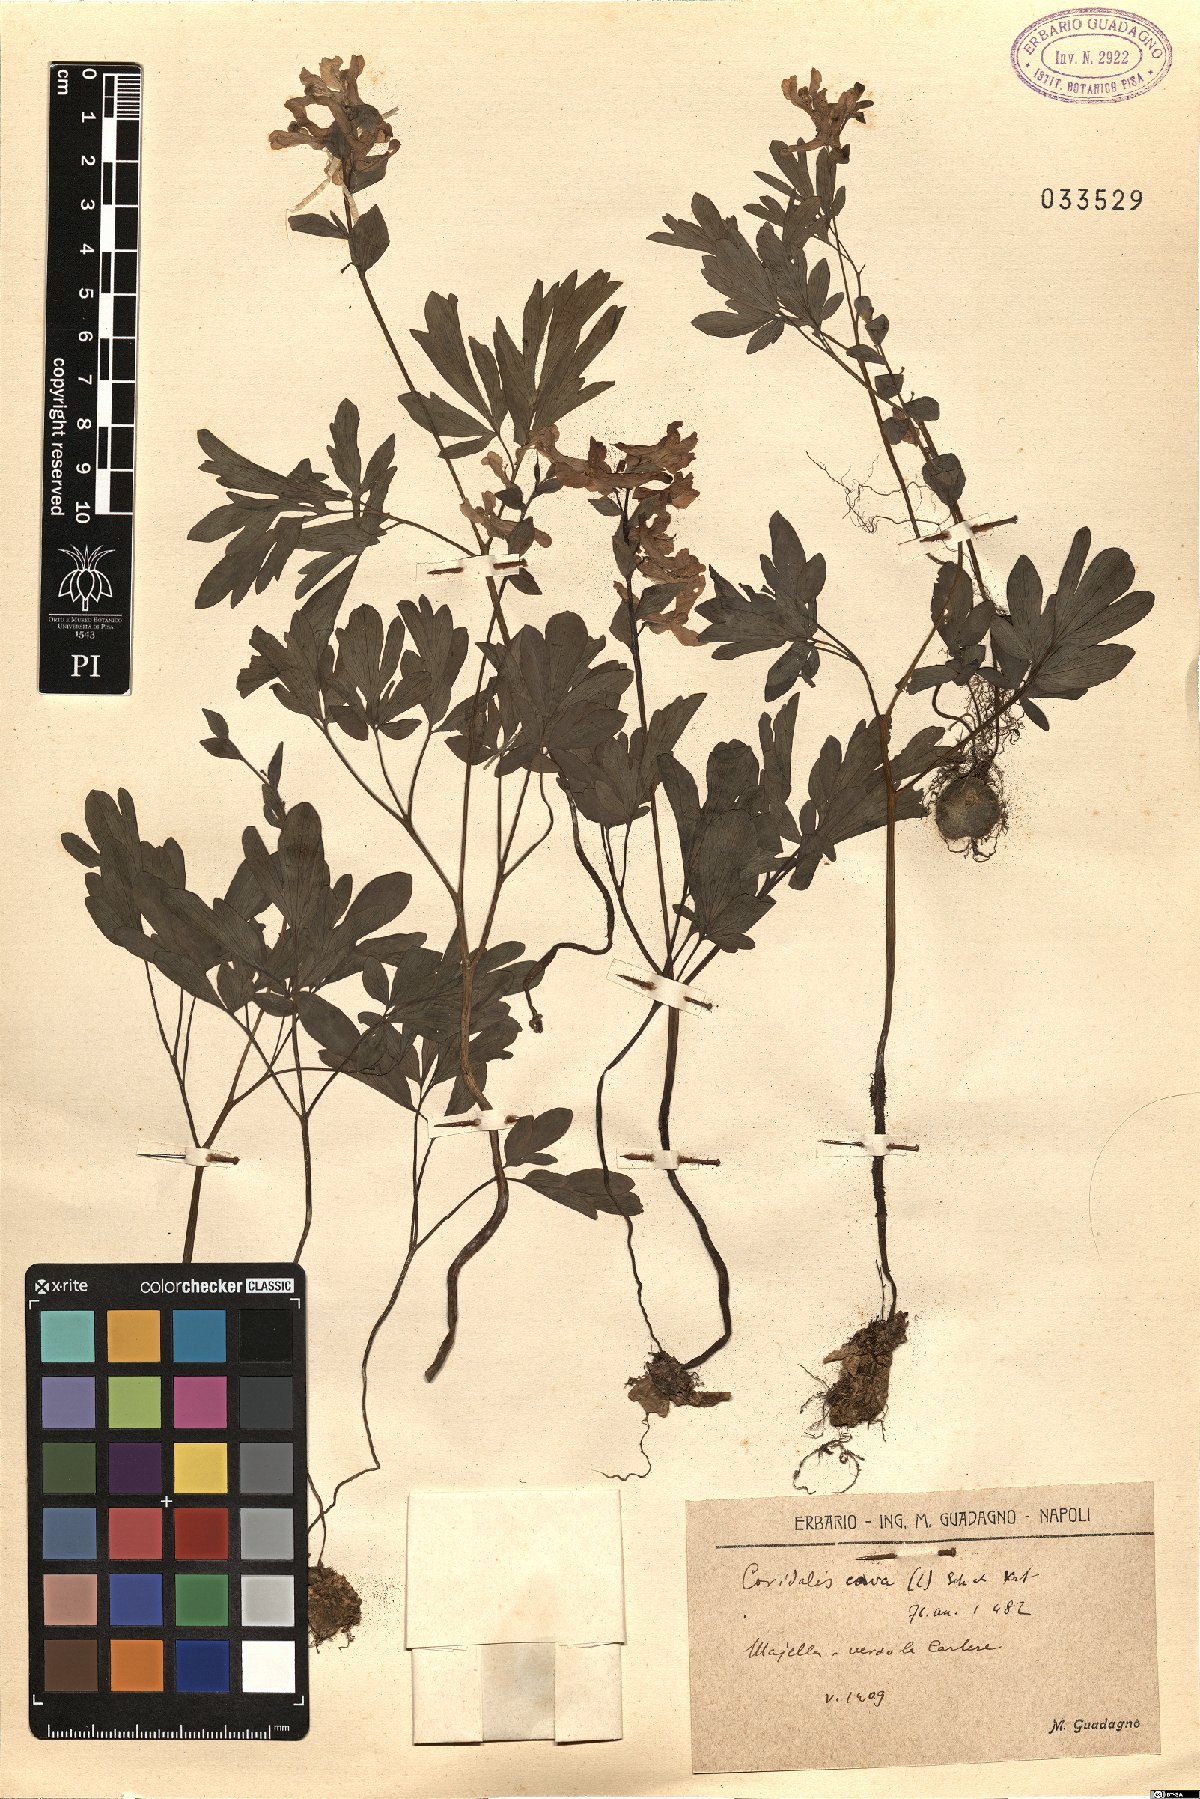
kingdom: Plantae
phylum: Tracheophyta
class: Magnoliopsida
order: Ranunculales
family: Papaveraceae
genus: Corydalis
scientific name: Corydalis cava
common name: Hollowroot
